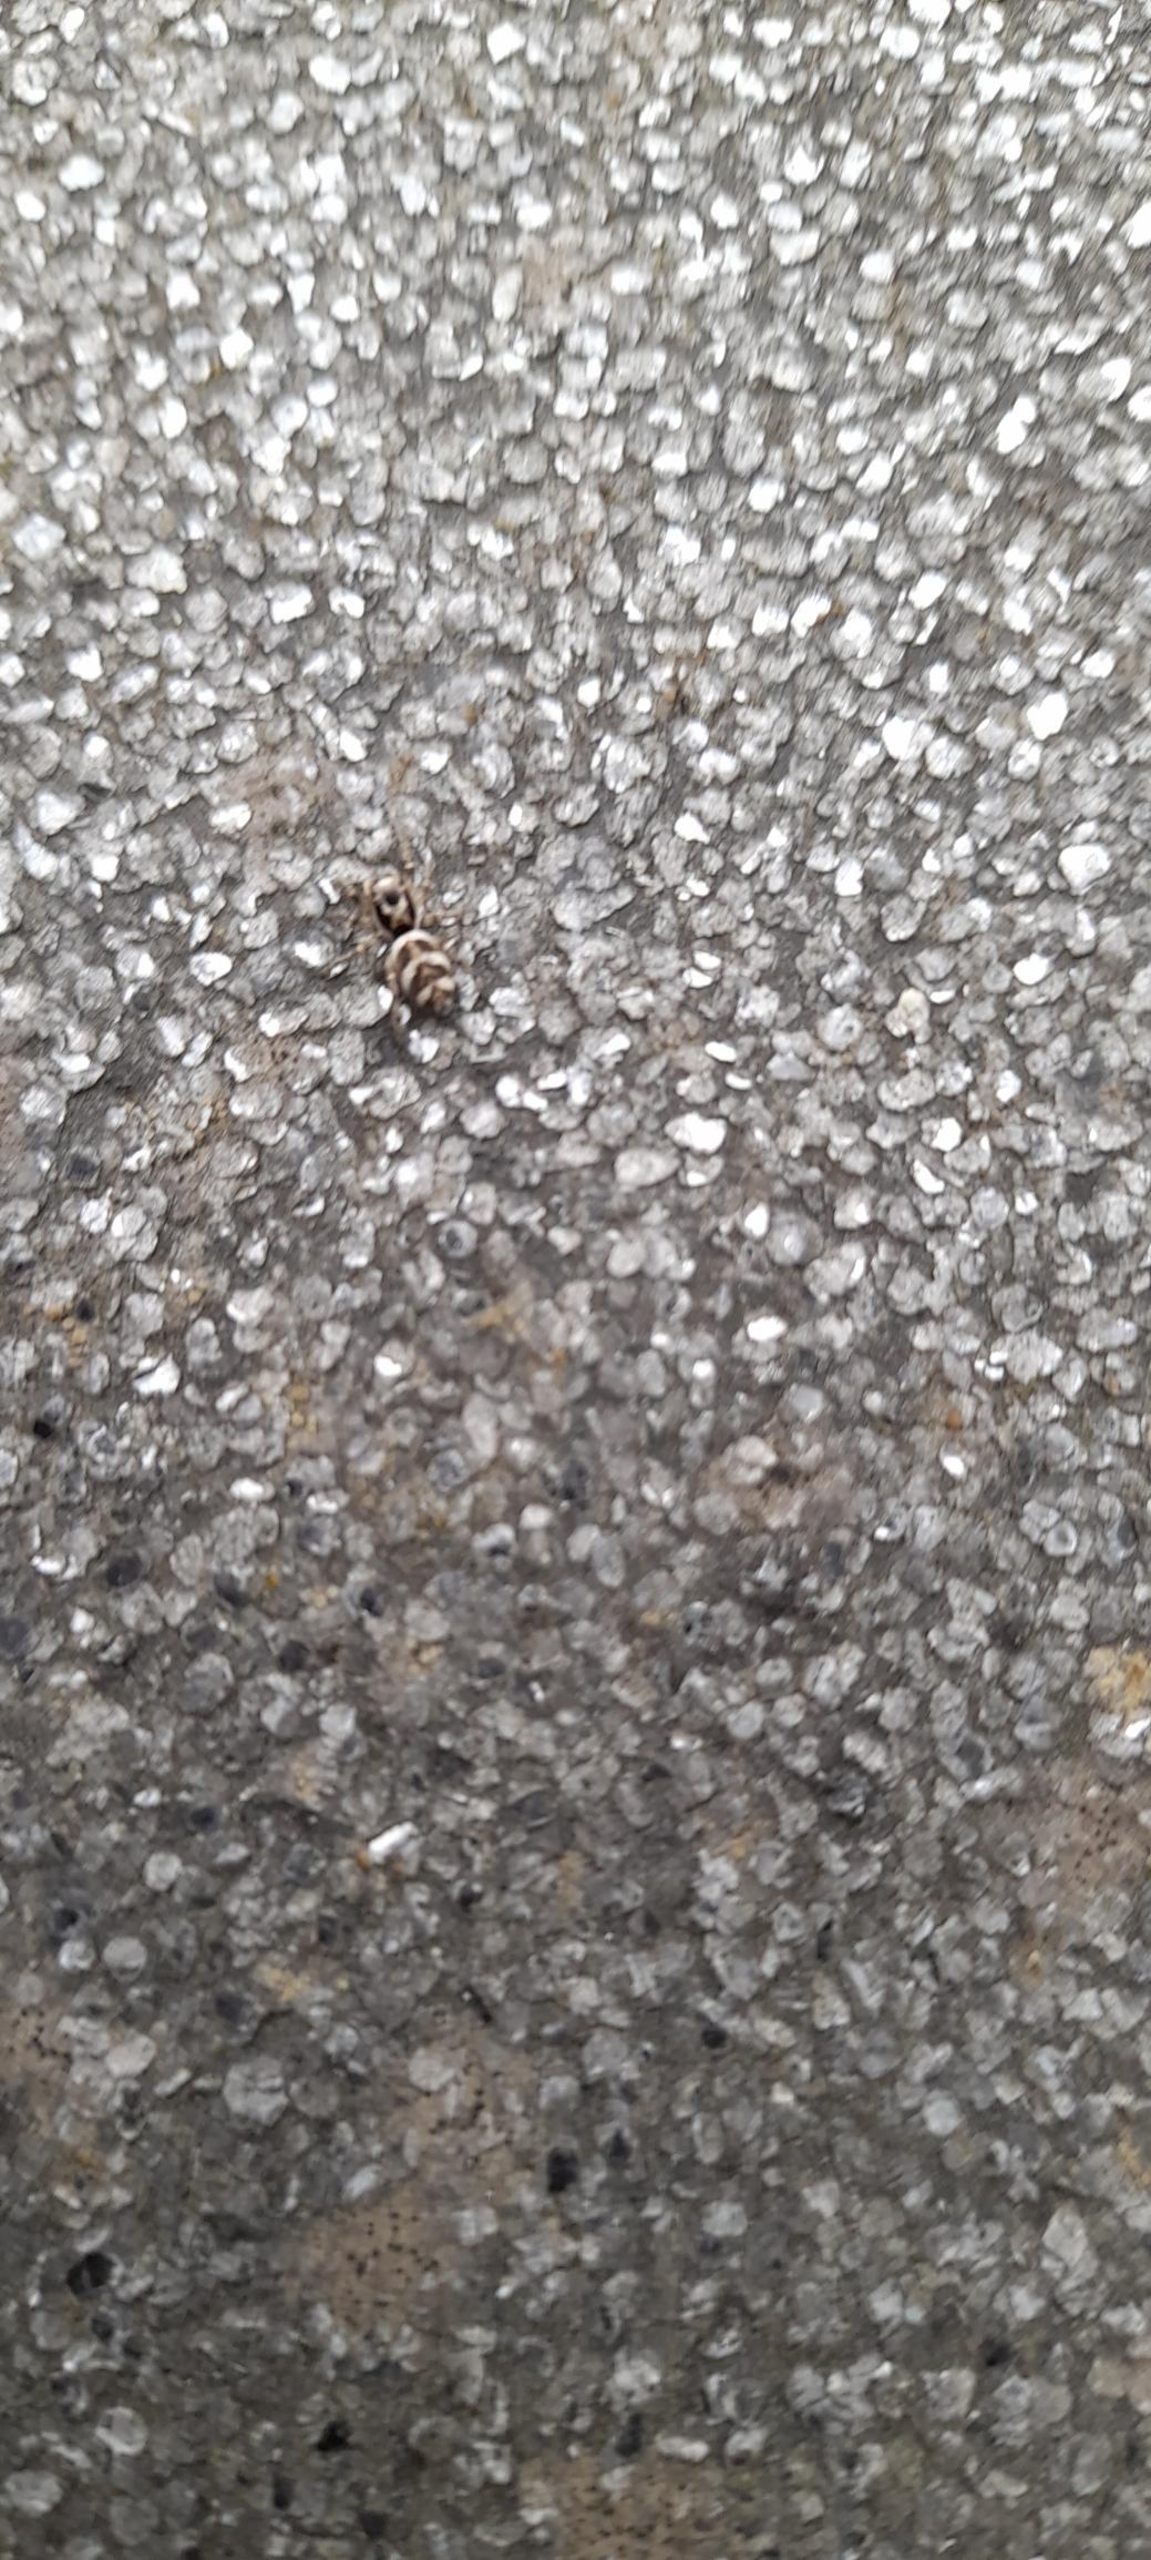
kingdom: Animalia
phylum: Arthropoda
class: Arachnida
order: Araneae
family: Salticidae
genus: Salticus
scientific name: Salticus scenicus
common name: Almindelig zebraedderkop
